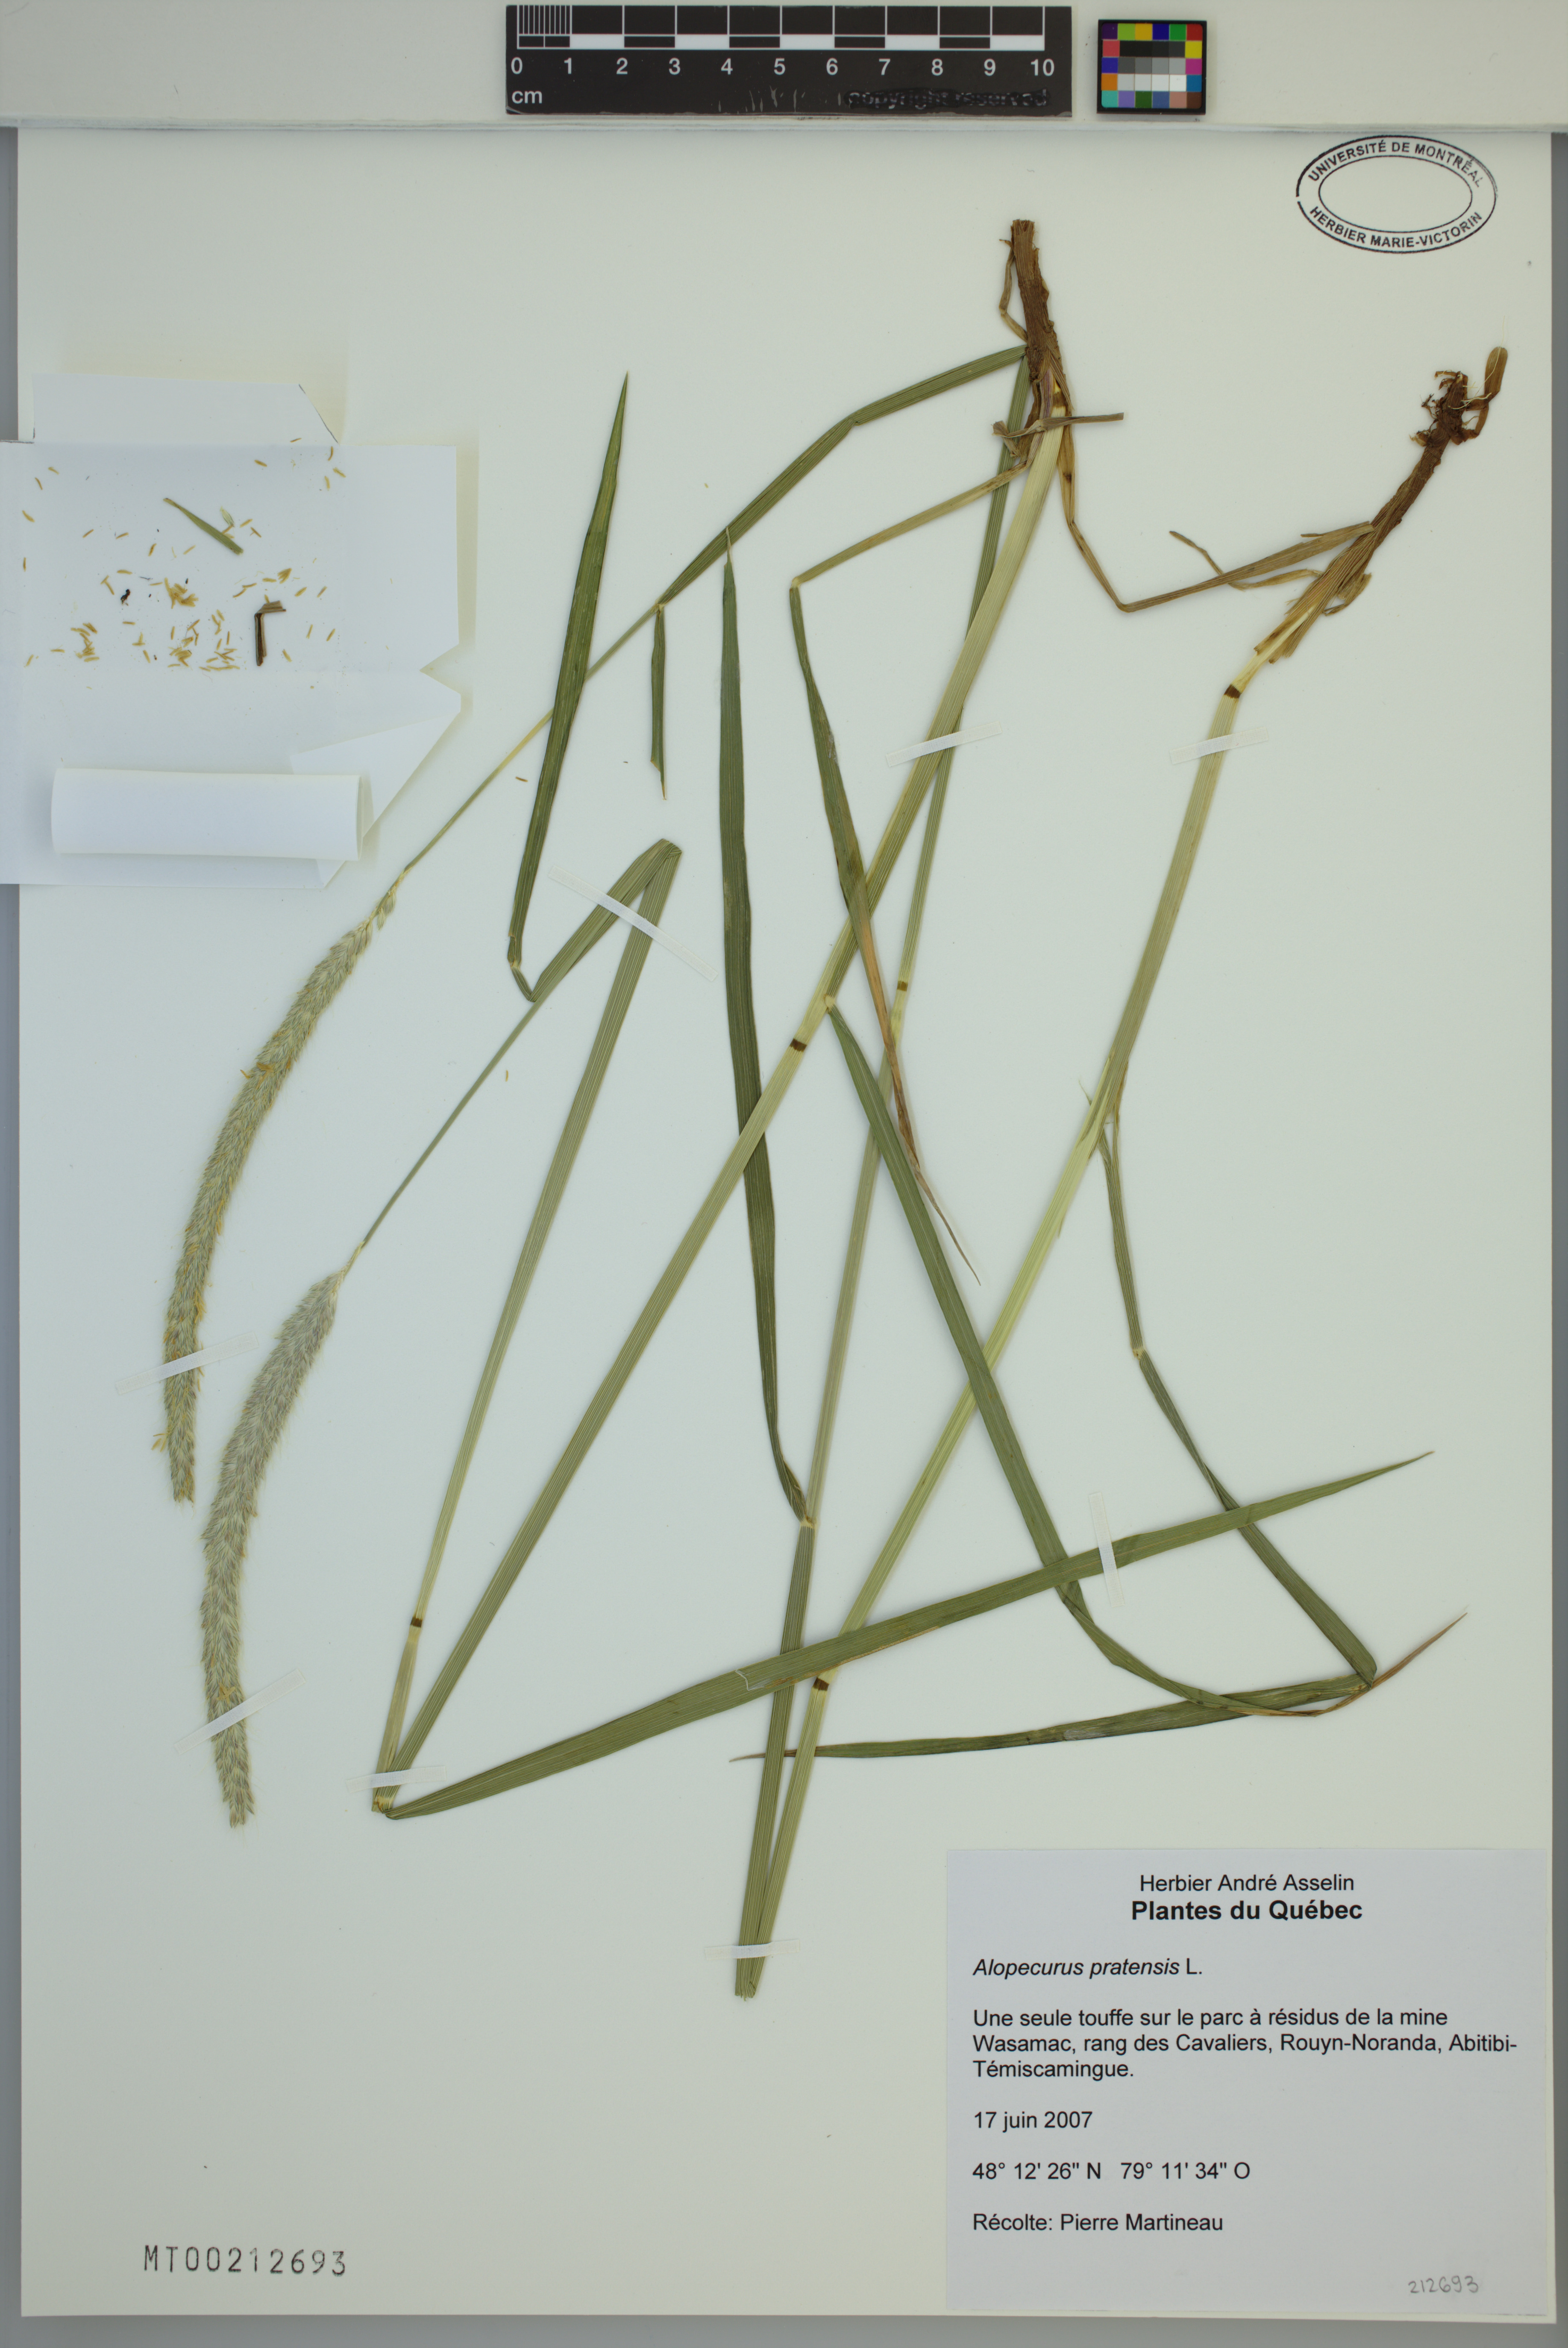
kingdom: Plantae
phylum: Tracheophyta
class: Liliopsida
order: Poales
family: Poaceae
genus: Alopecurus
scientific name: Alopecurus pratensis
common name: Meadow foxtail
